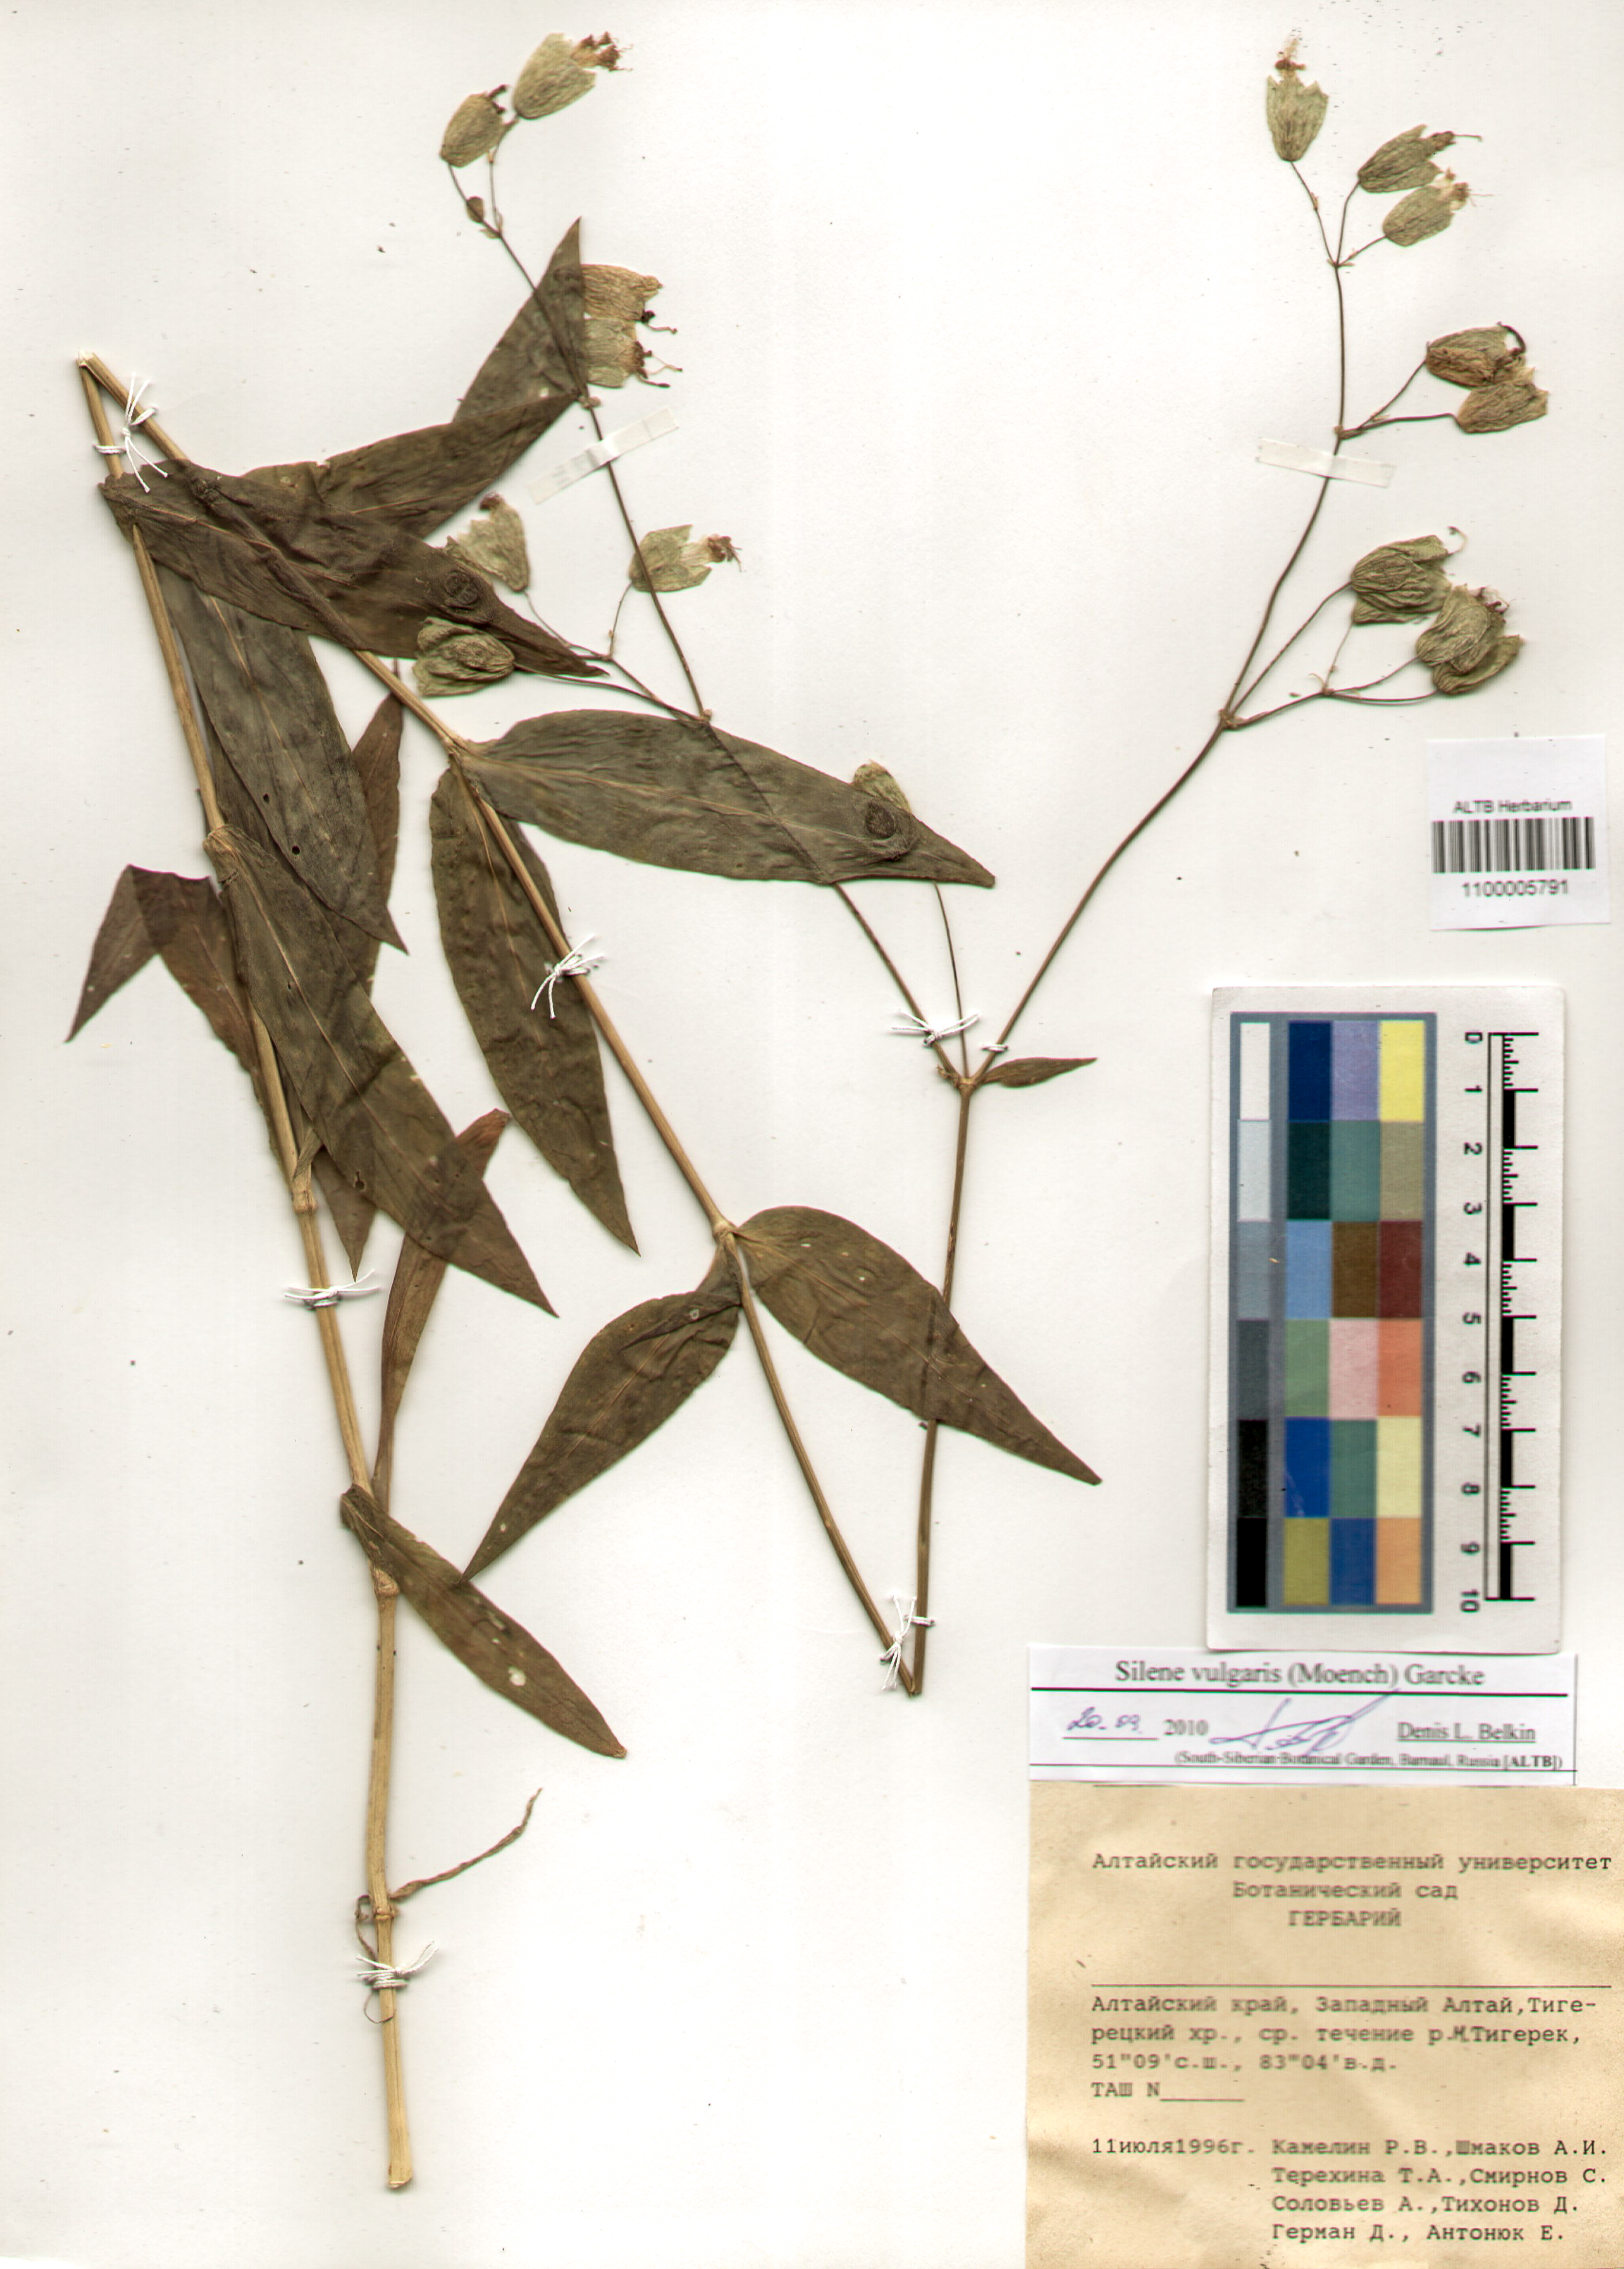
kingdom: Plantae
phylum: Tracheophyta
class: Magnoliopsida
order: Caryophyllales
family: Caryophyllaceae
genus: Silene
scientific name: Silene vulgaris
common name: Bladder campion
